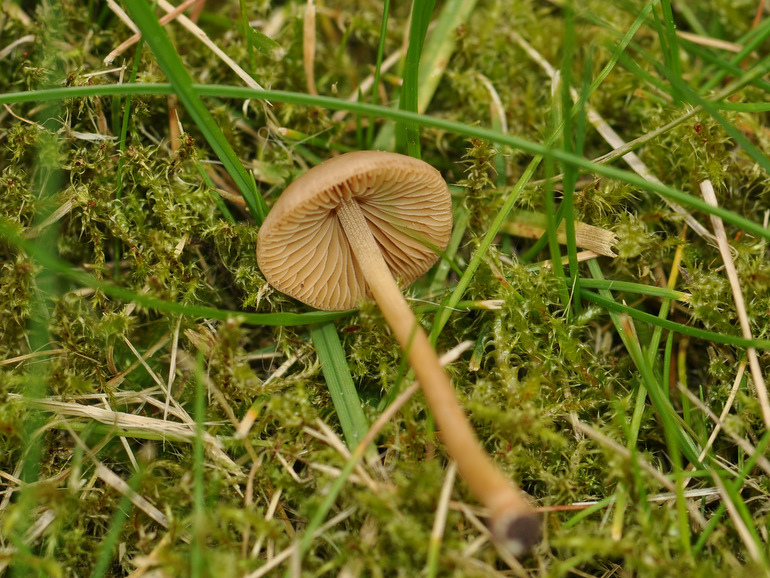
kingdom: Fungi
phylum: Basidiomycota
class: Agaricomycetes
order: Agaricales
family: Bolbitiaceae
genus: Conocybe
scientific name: Conocybe macrocephala
